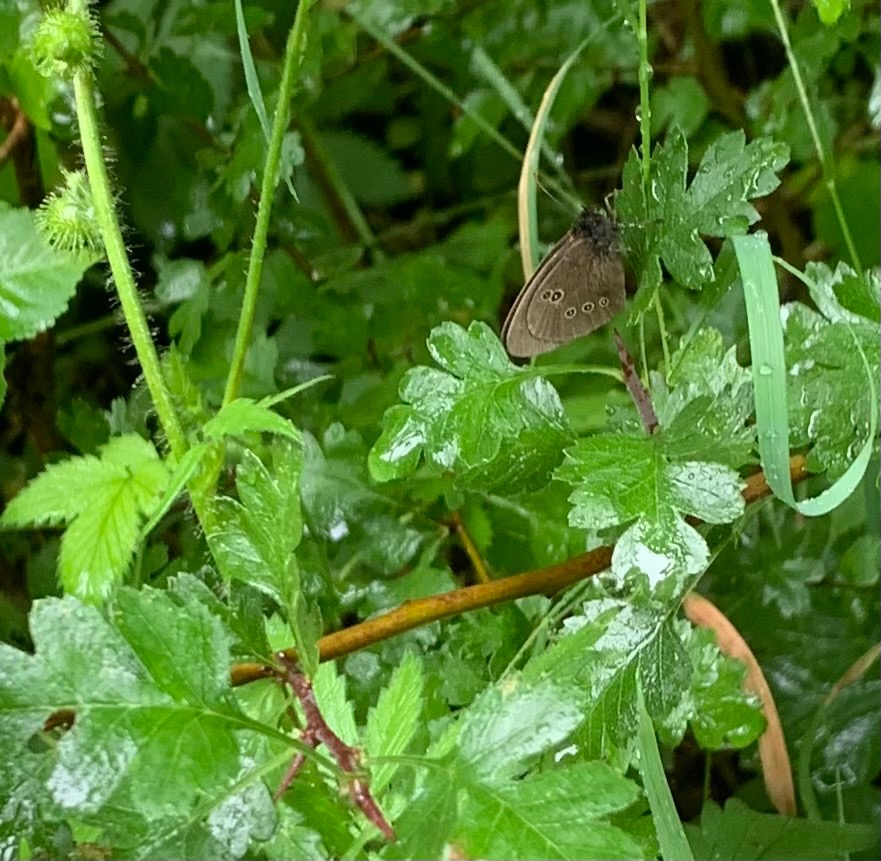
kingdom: Animalia
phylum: Arthropoda
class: Insecta
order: Lepidoptera
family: Nymphalidae
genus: Aphantopus
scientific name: Aphantopus hyperantus
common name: Engrandøje
